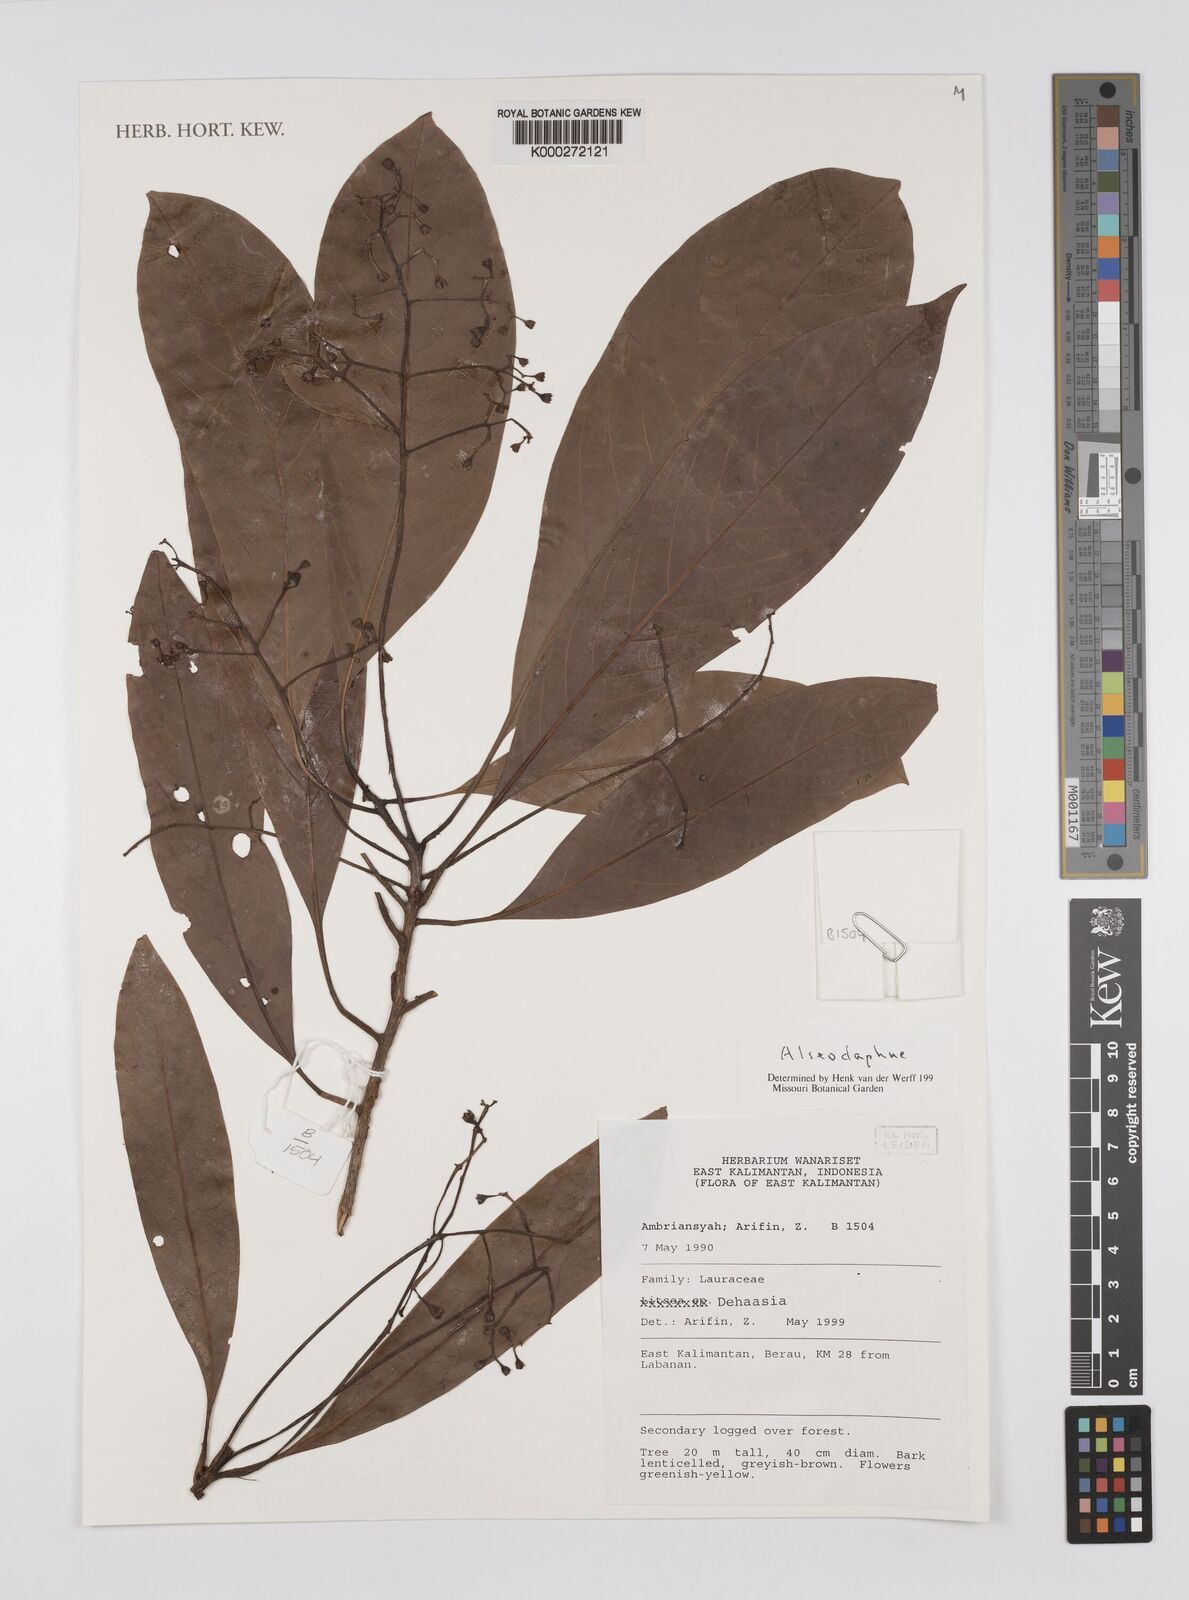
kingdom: Plantae
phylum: Tracheophyta
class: Magnoliopsida
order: Laurales
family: Lauraceae
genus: Alseodaphne
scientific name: Alseodaphne
